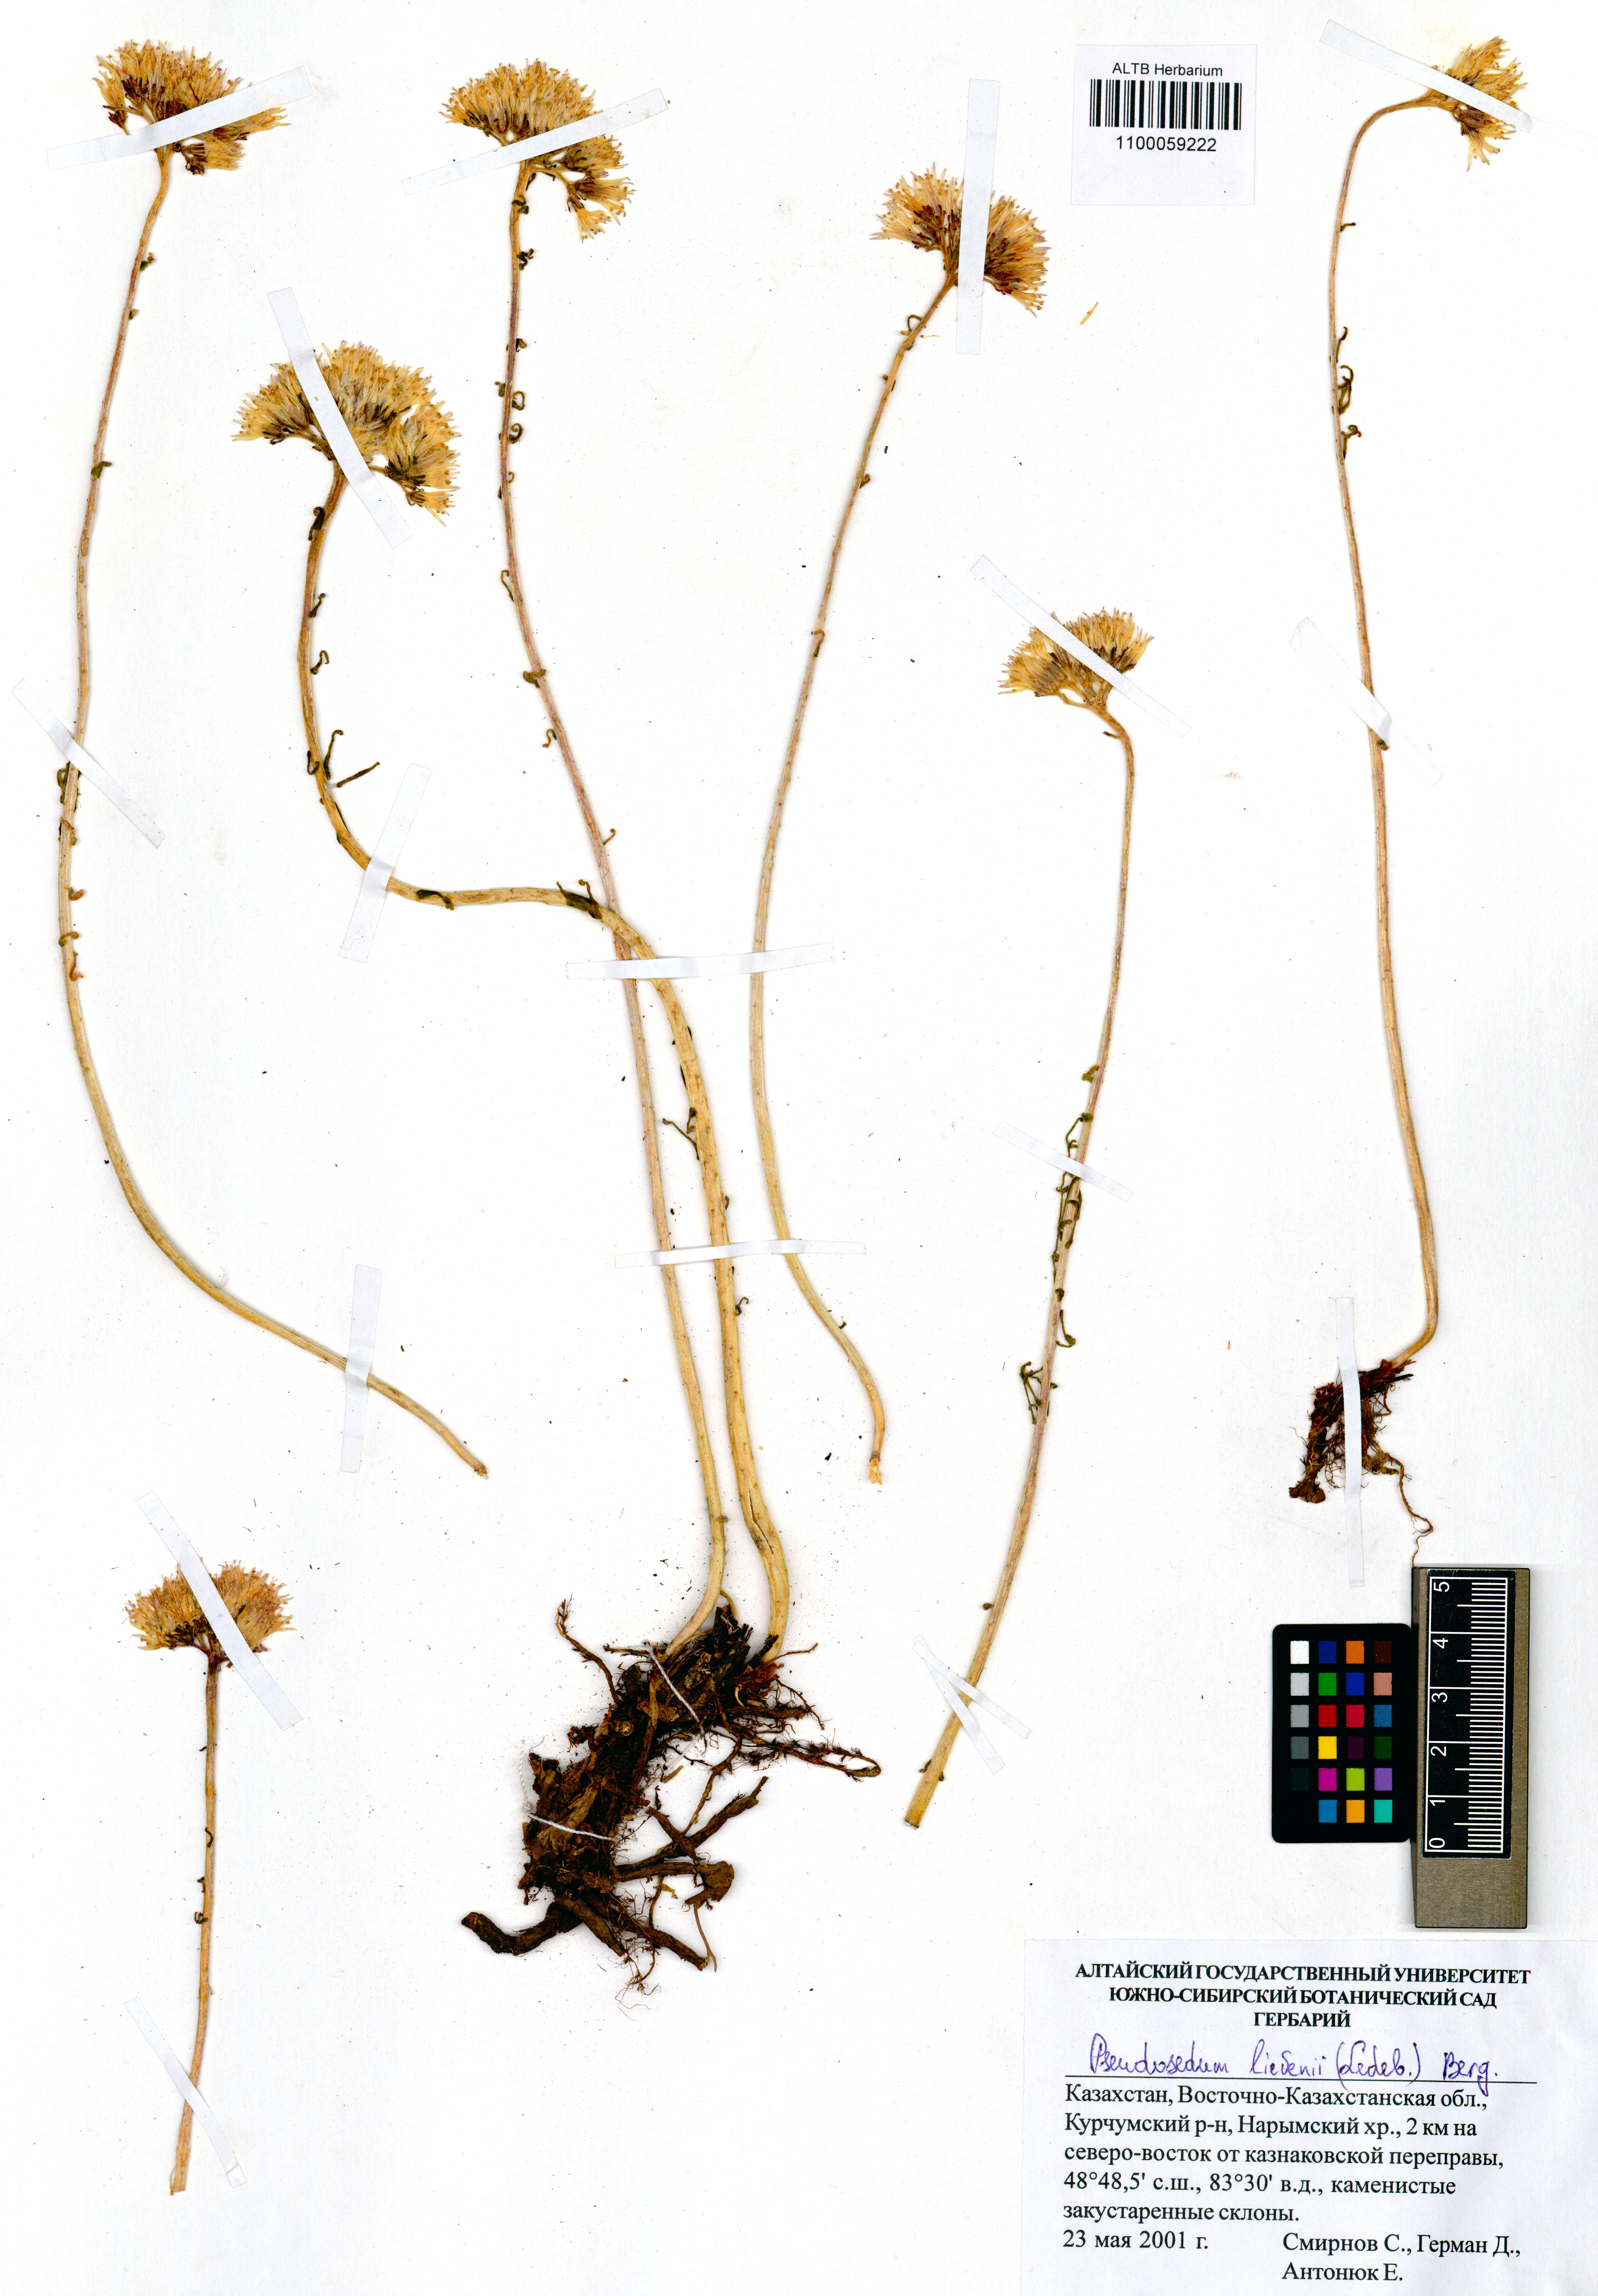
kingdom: Plantae
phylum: Tracheophyta
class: Magnoliopsida
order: Saxifragales
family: Crassulaceae
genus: Pseudosedum
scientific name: Pseudosedum lievenii
